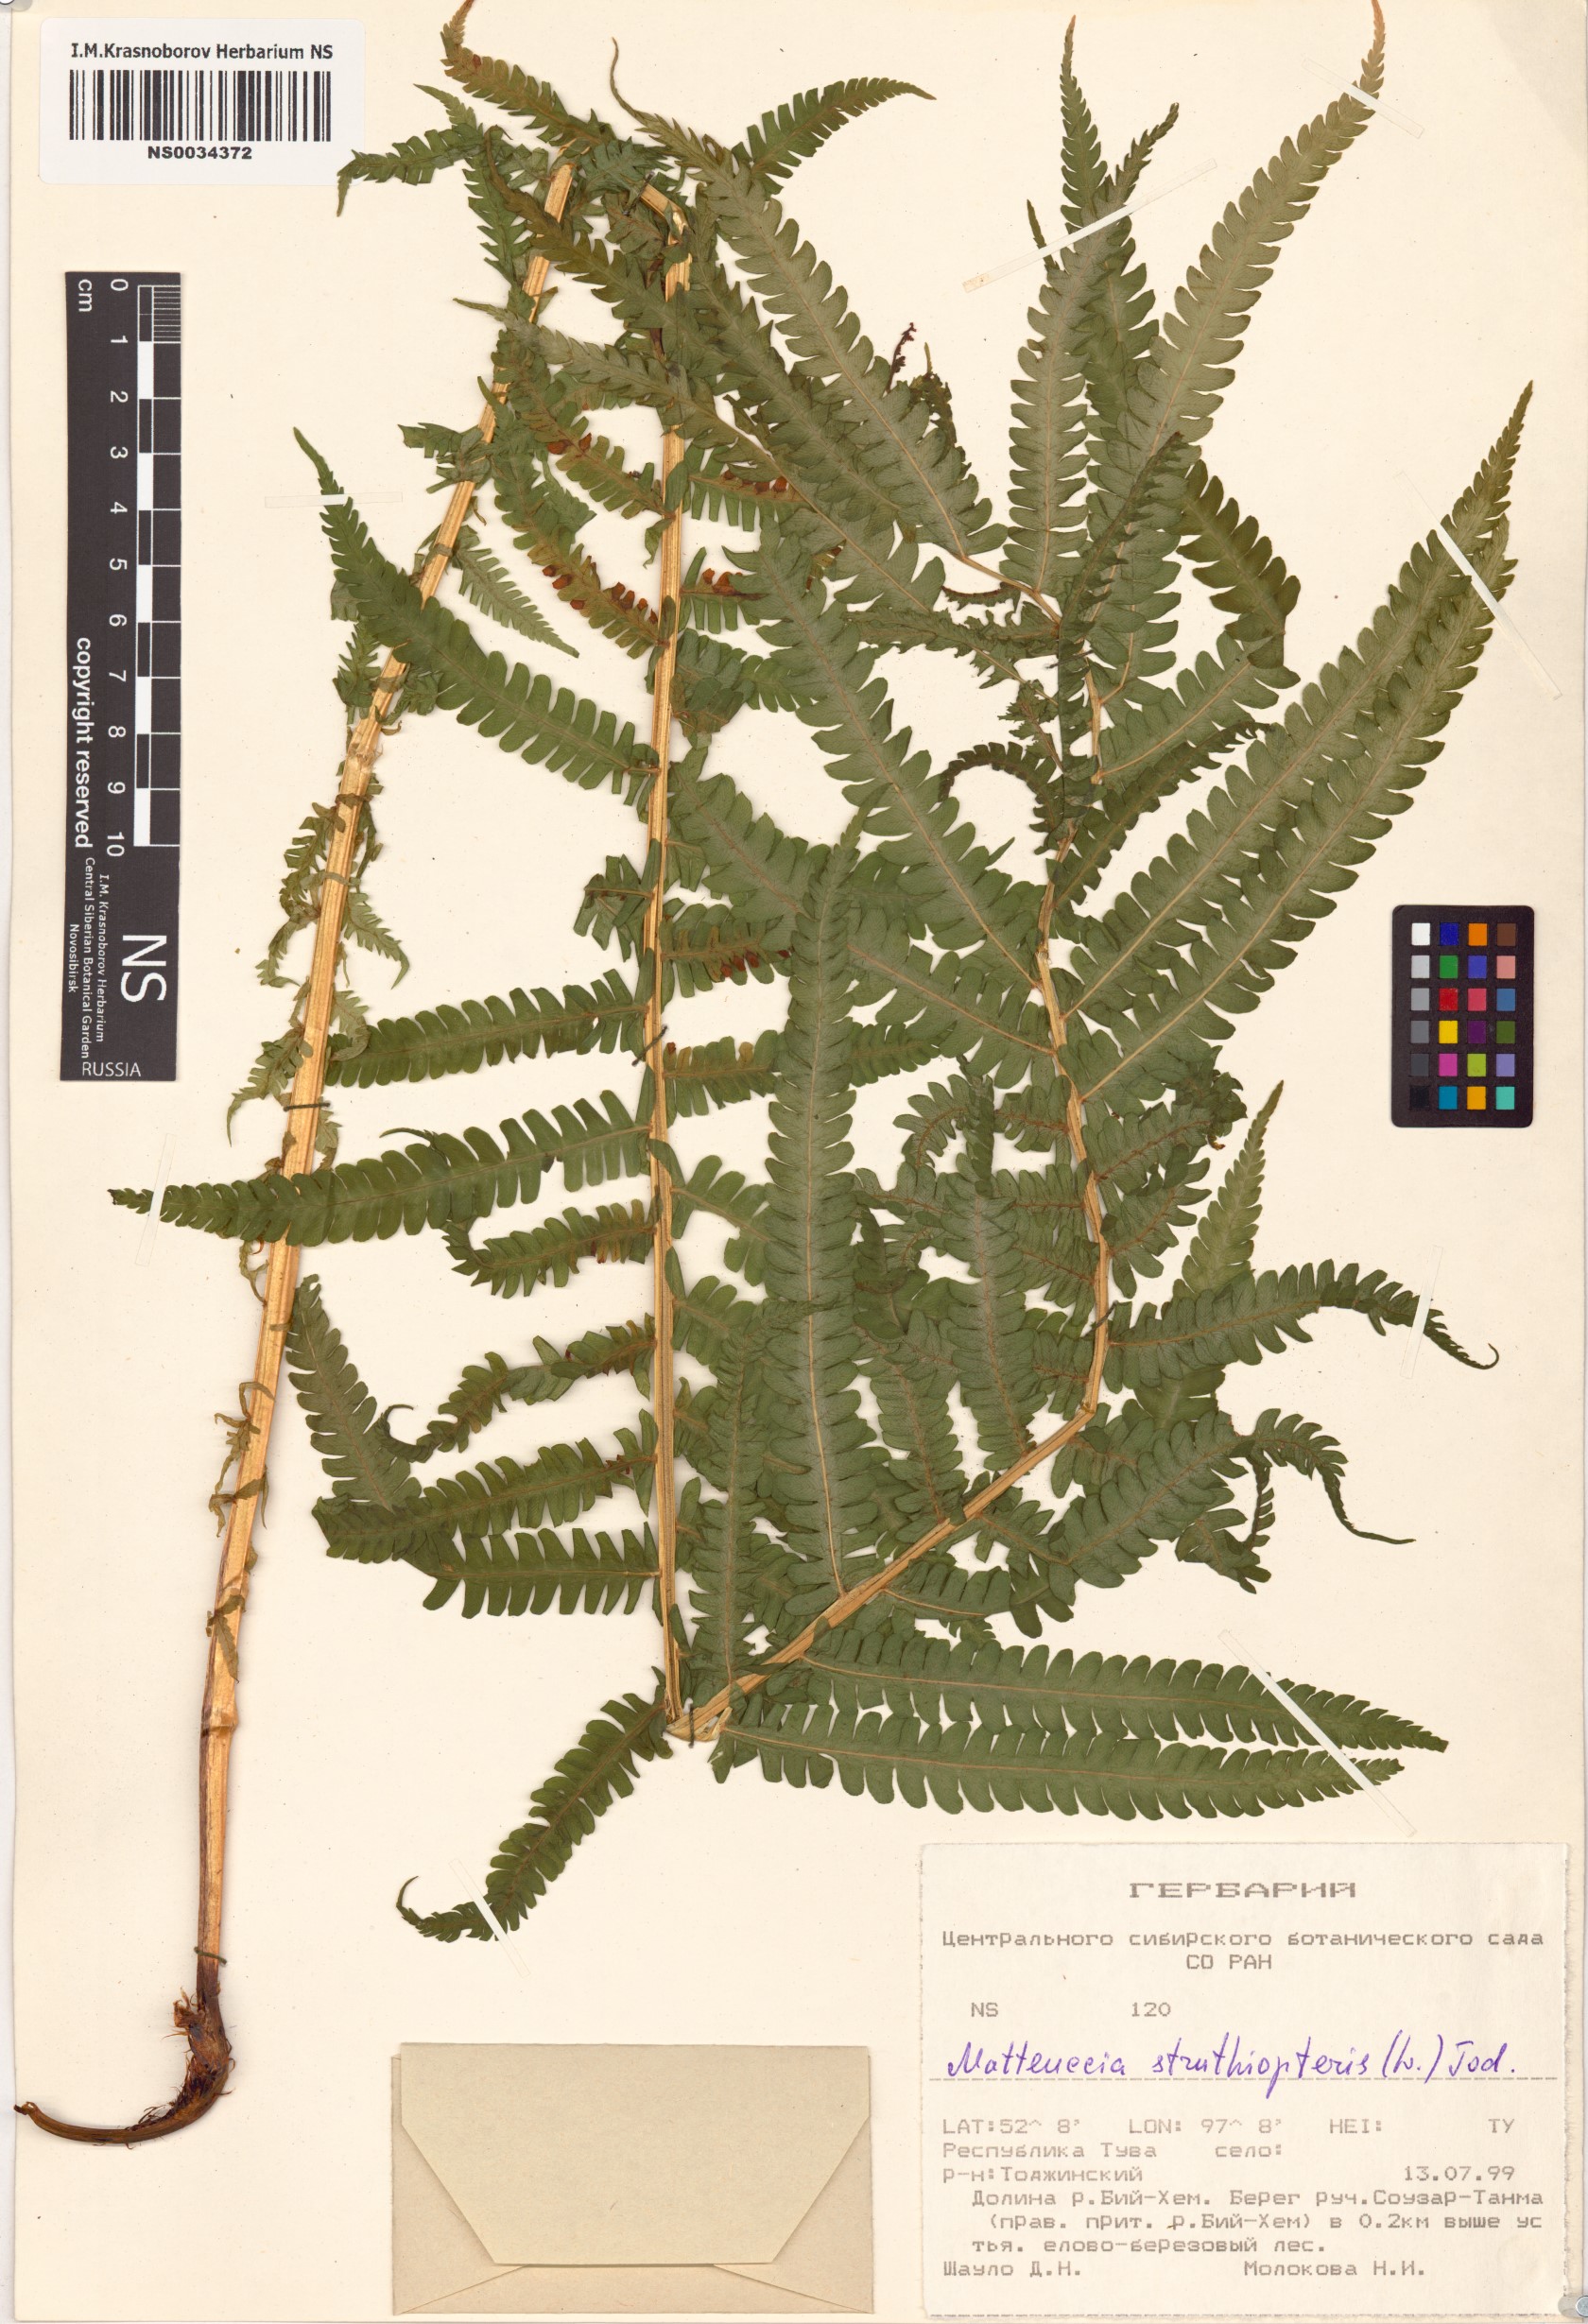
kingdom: Plantae
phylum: Tracheophyta
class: Polypodiopsida
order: Polypodiales
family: Onocleaceae
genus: Matteuccia
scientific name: Matteuccia struthiopteris
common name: Ostrich fern
